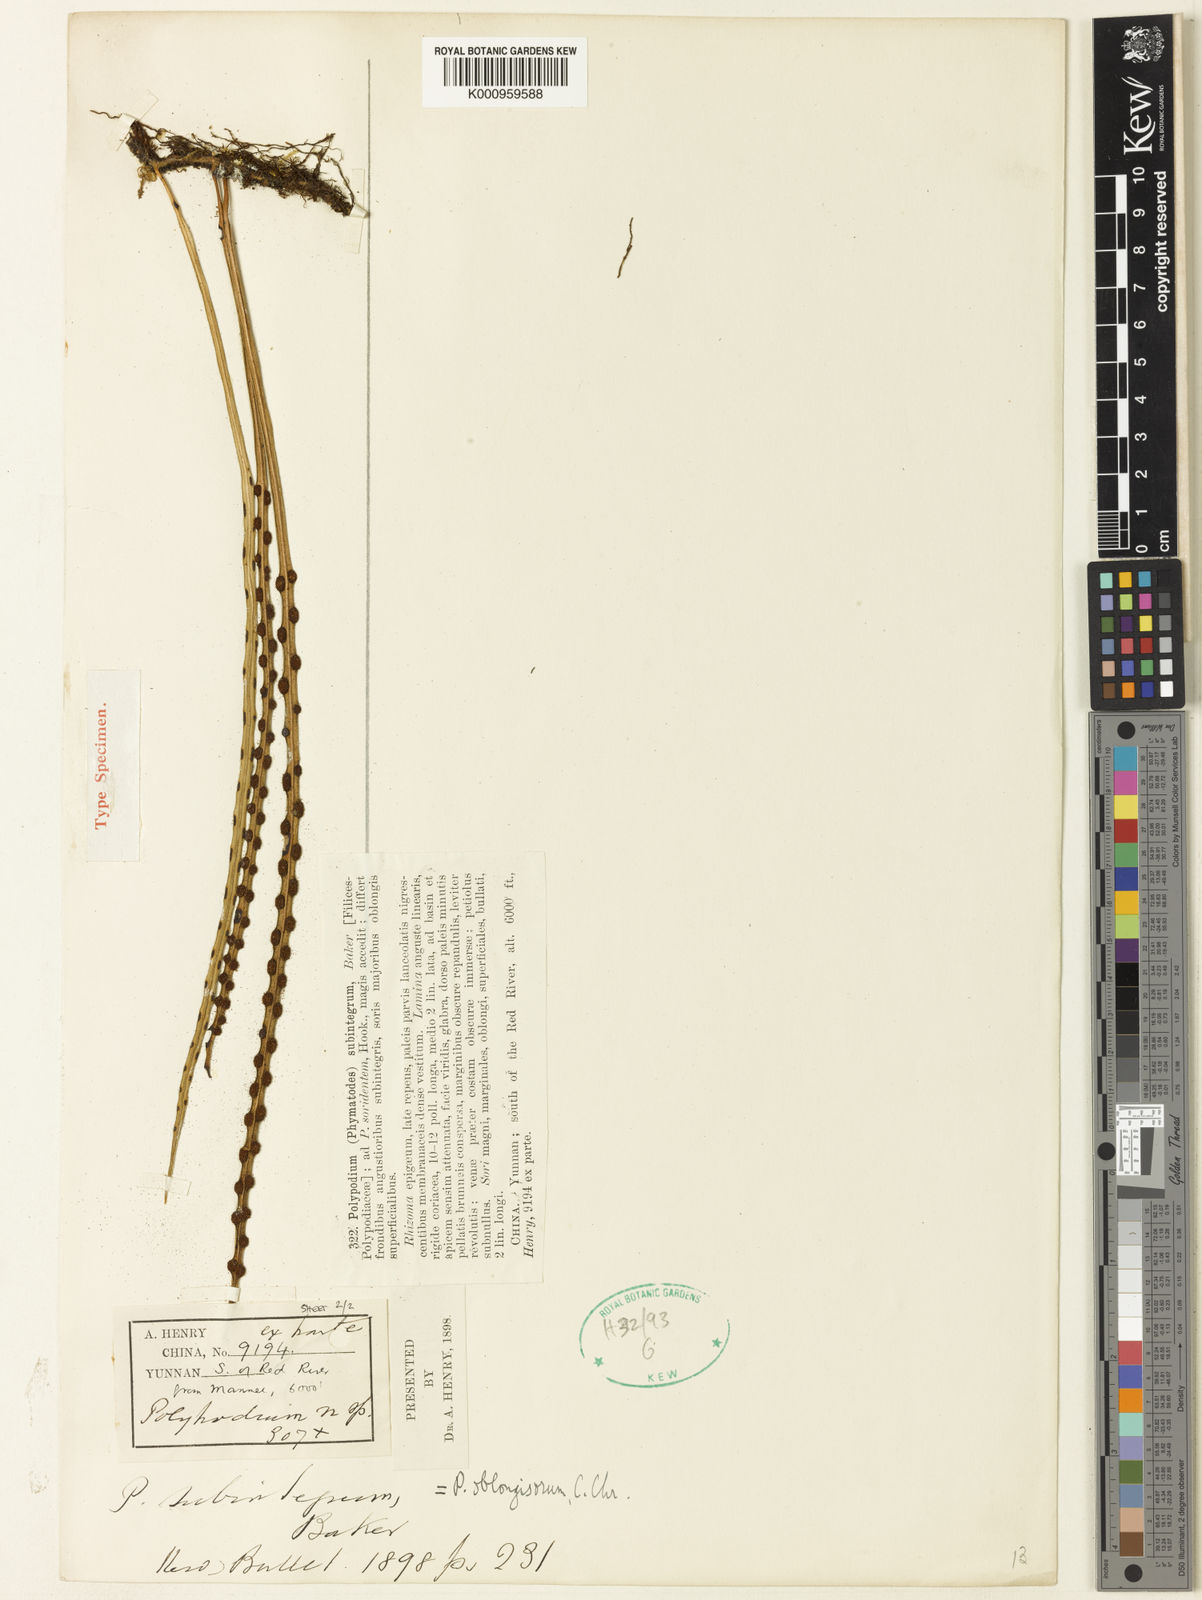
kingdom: Plantae
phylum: Tracheophyta
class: Polypodiopsida
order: Polypodiales
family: Polypodiaceae
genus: Lepisorus
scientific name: Lepisorus loriformis
